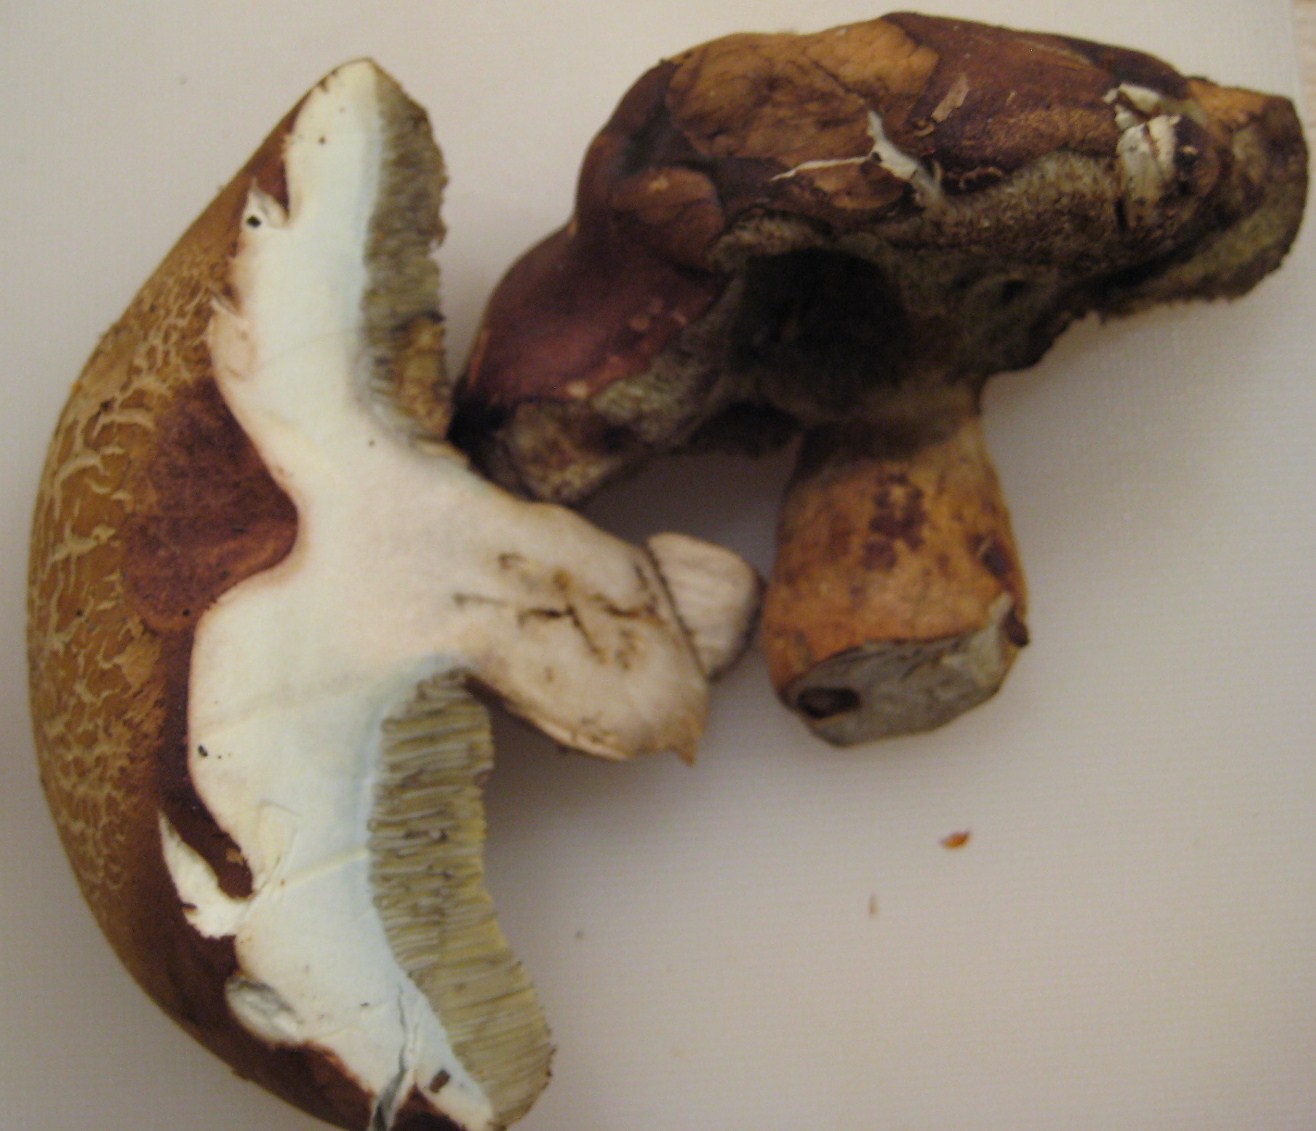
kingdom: Fungi
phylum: Basidiomycota
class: Agaricomycetes
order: Boletales
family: Boletaceae
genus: Xerocomellus
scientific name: Xerocomellus porosporus
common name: hvidsprukken rørhat
